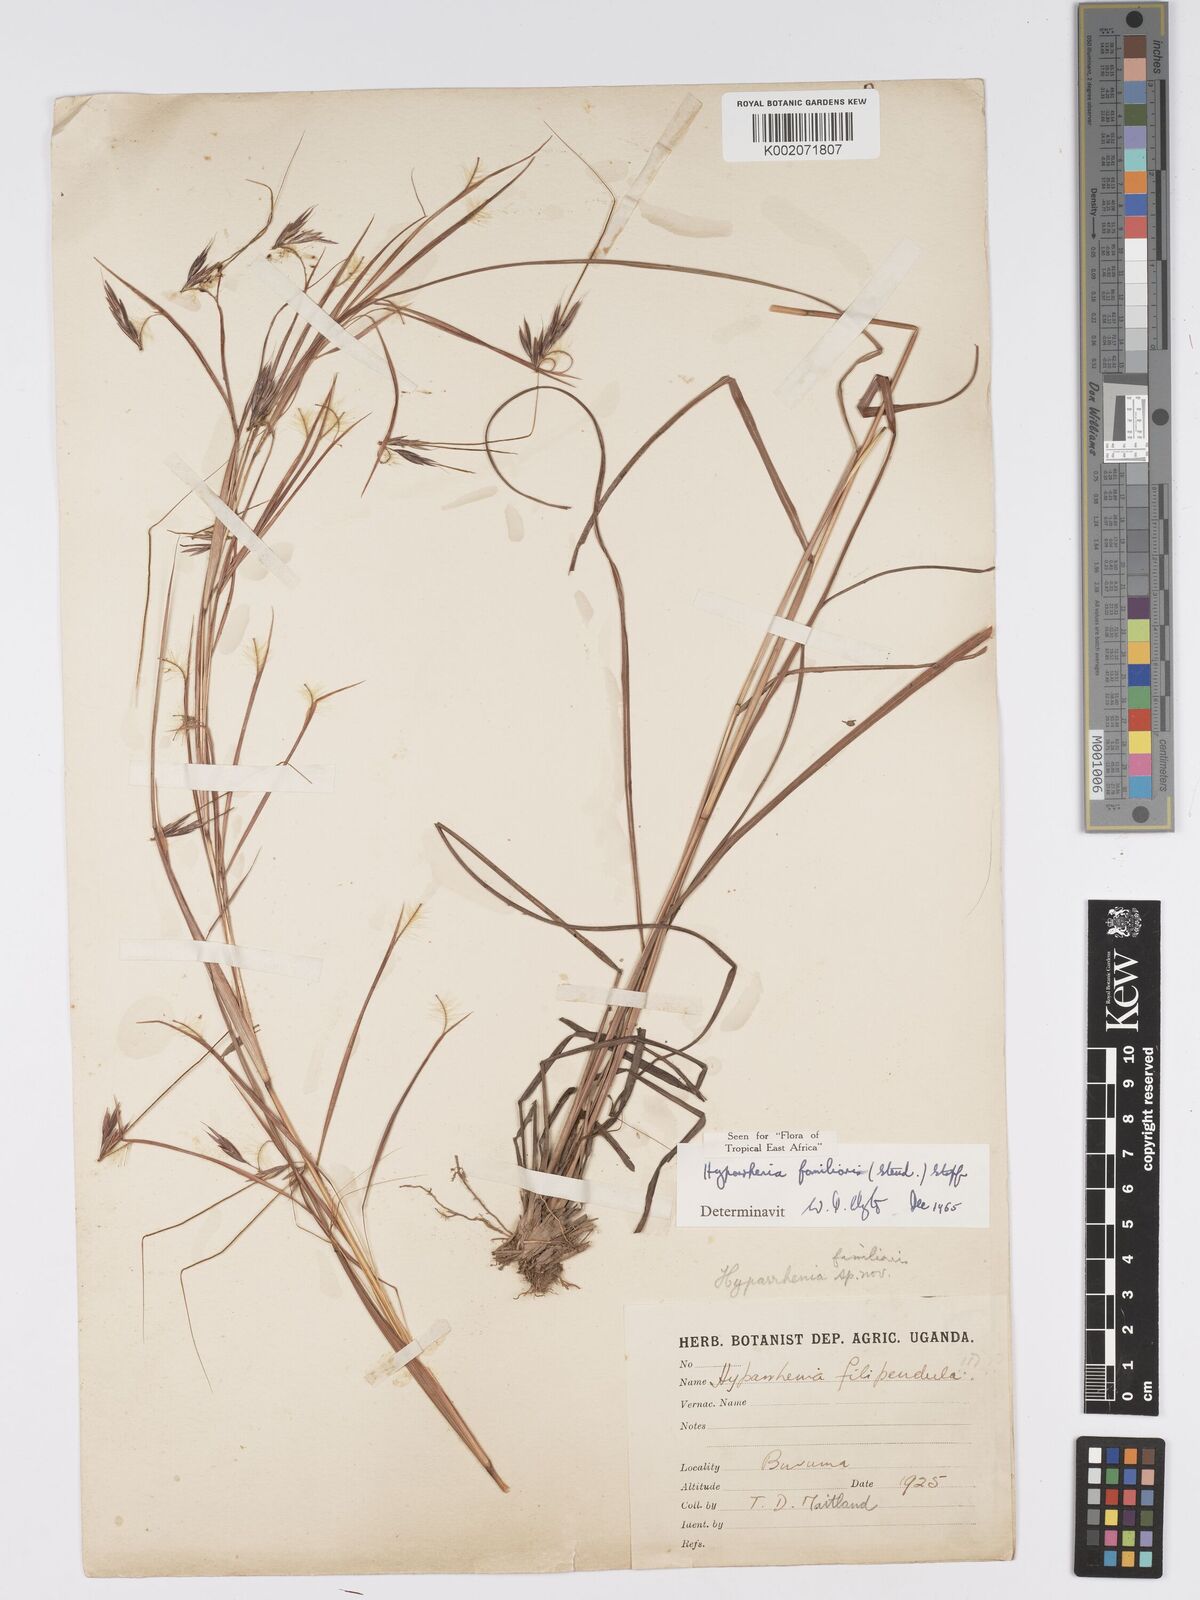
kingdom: Plantae
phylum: Tracheophyta
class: Liliopsida
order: Poales
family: Poaceae
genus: Hyparrhenia
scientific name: Hyparrhenia familiaris
